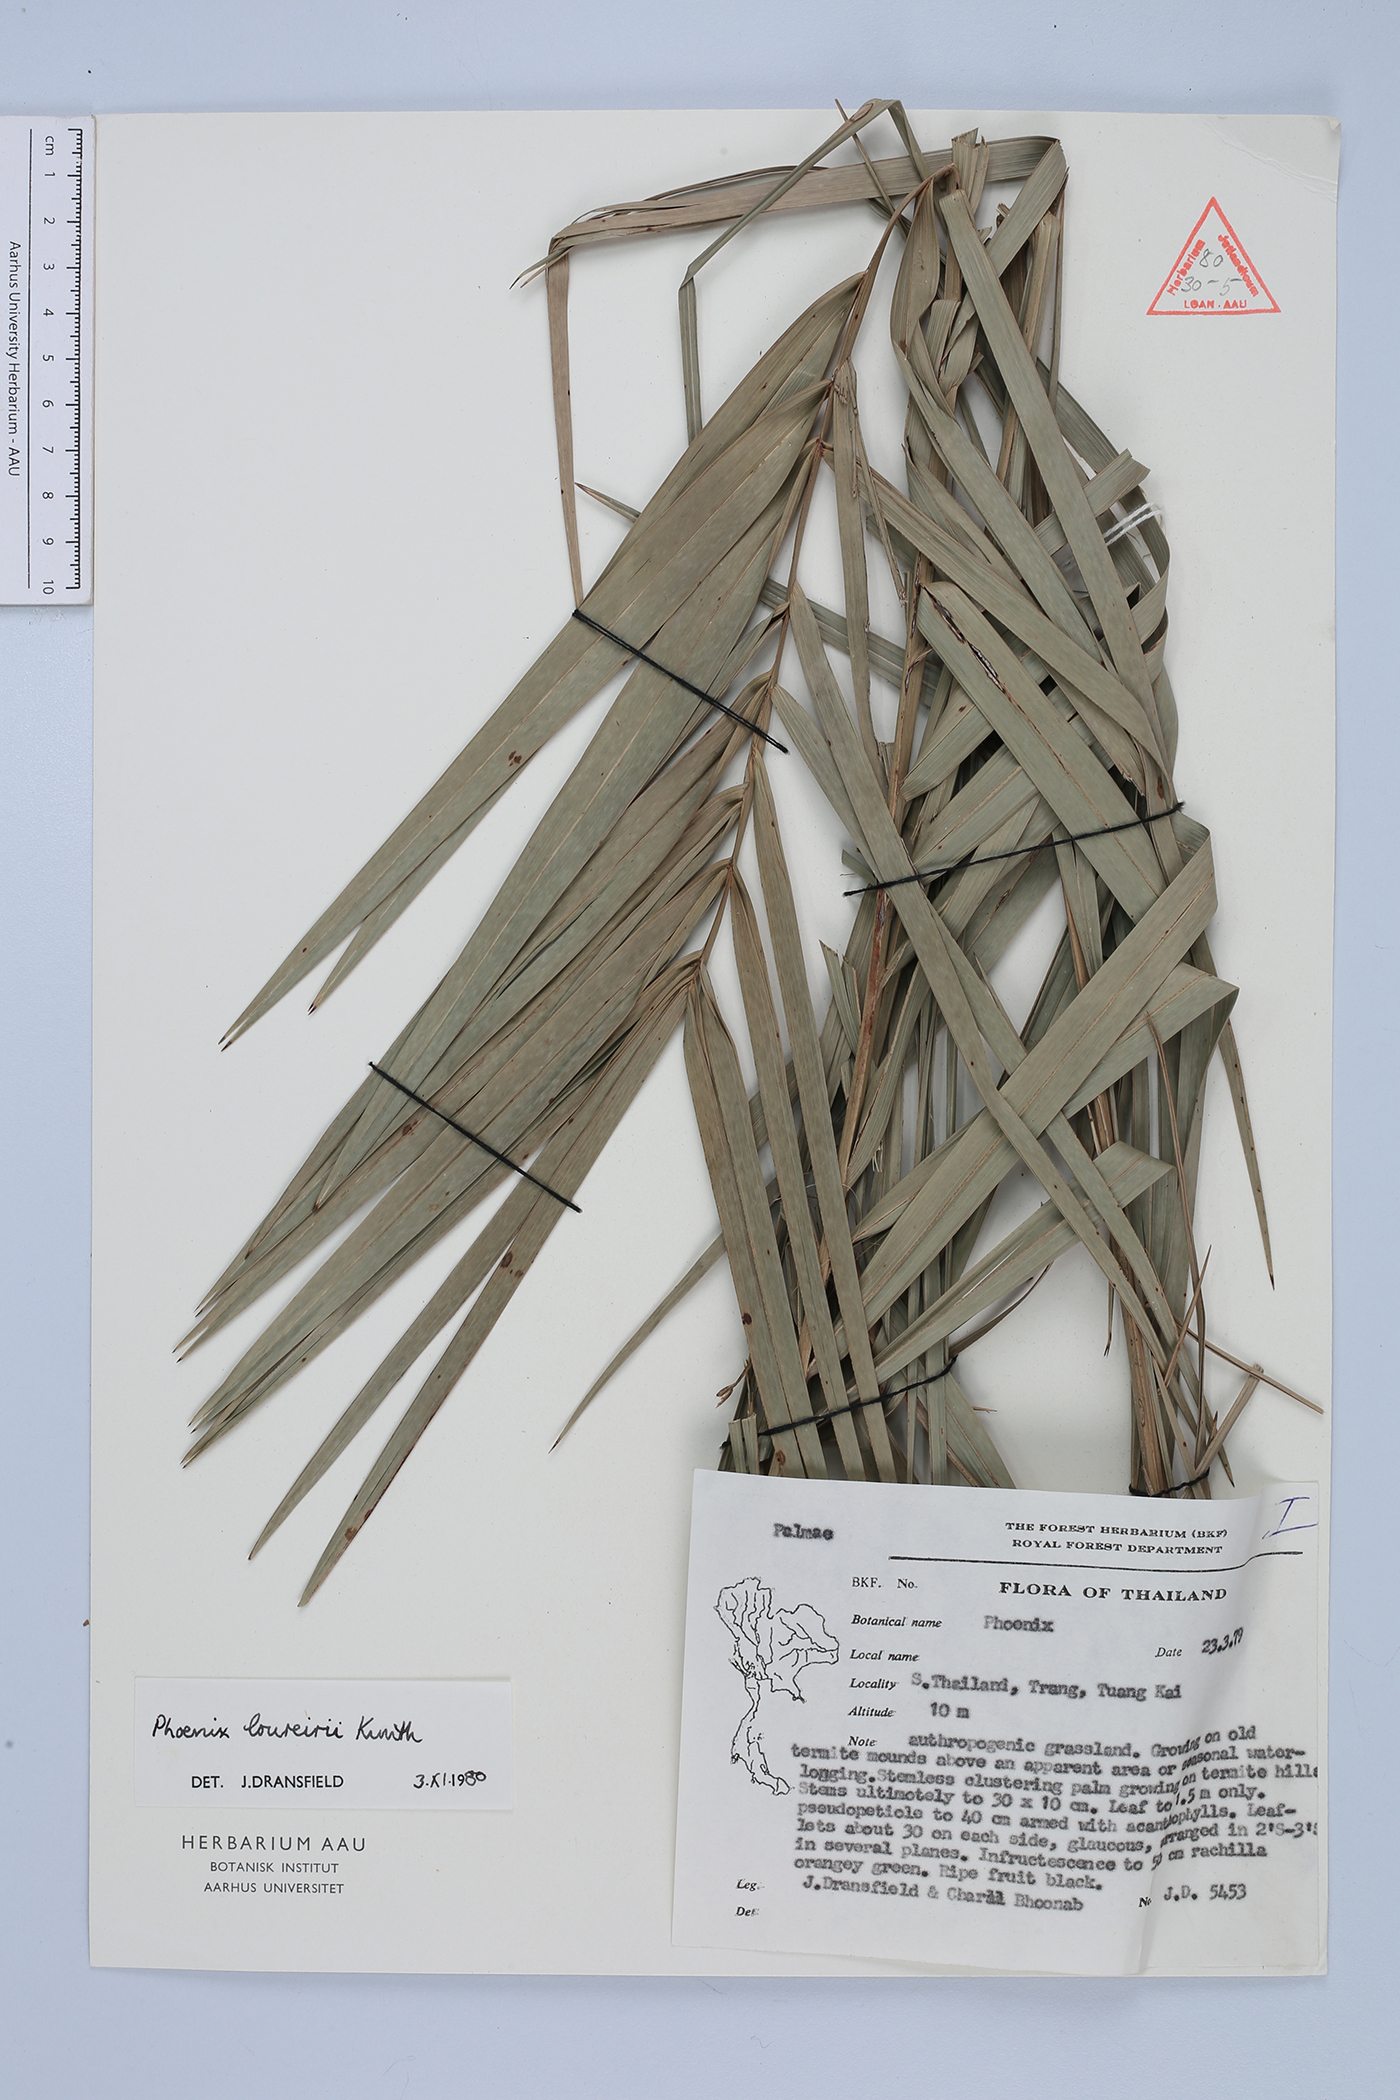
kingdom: Plantae
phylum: Tracheophyta
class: Liliopsida
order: Arecales
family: Arecaceae
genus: Phoenix
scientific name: Phoenix loureiroi
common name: Loureiro's palm
